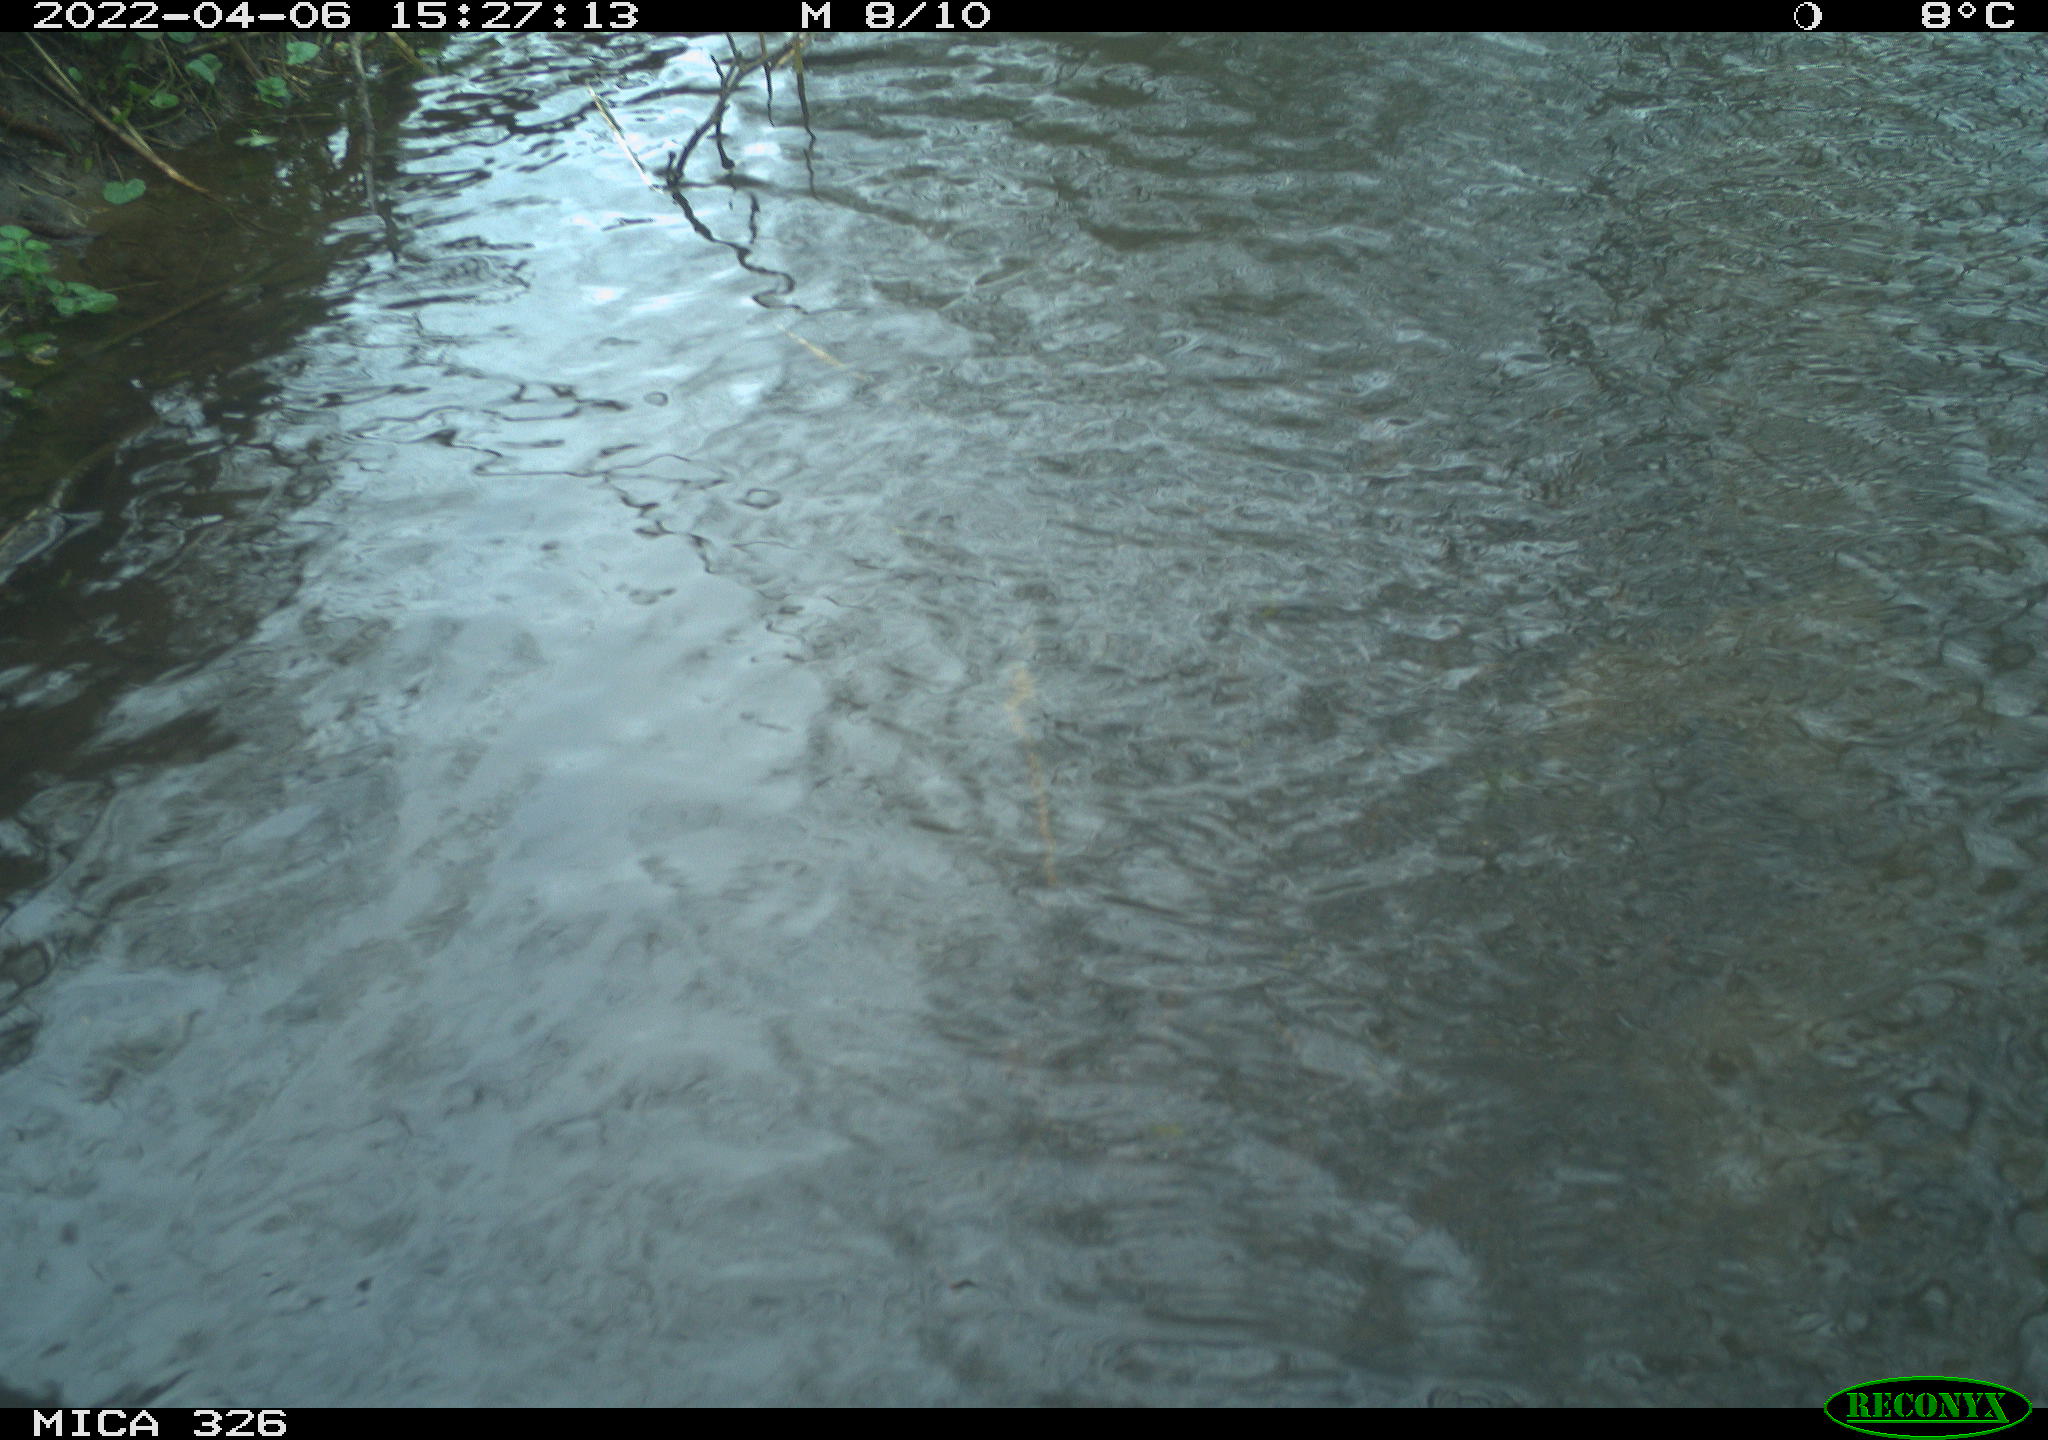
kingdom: Animalia
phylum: Chordata
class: Mammalia
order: Rodentia
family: Cricetidae
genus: Ondatra
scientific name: Ondatra zibethicus
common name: Muskrat
